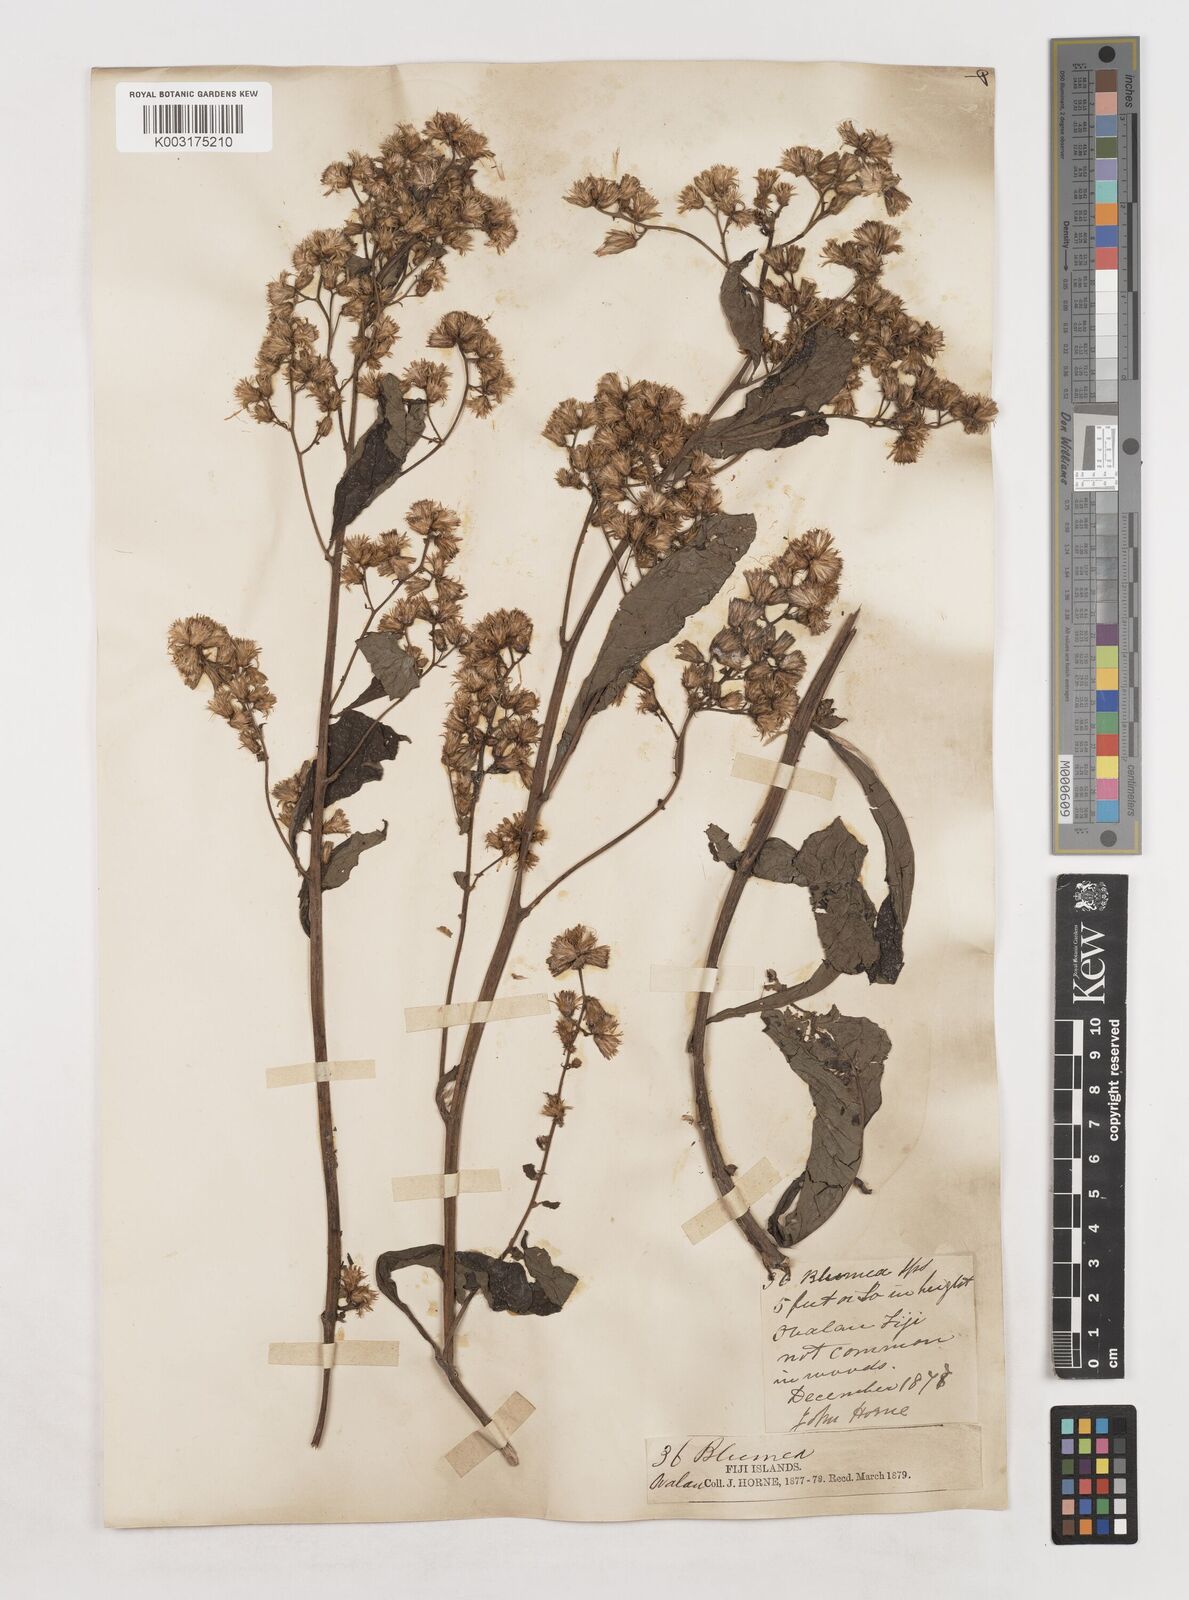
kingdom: Plantae
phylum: Tracheophyta
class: Magnoliopsida
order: Asterales
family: Asteraceae
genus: Blumea
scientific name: Blumea milnei
